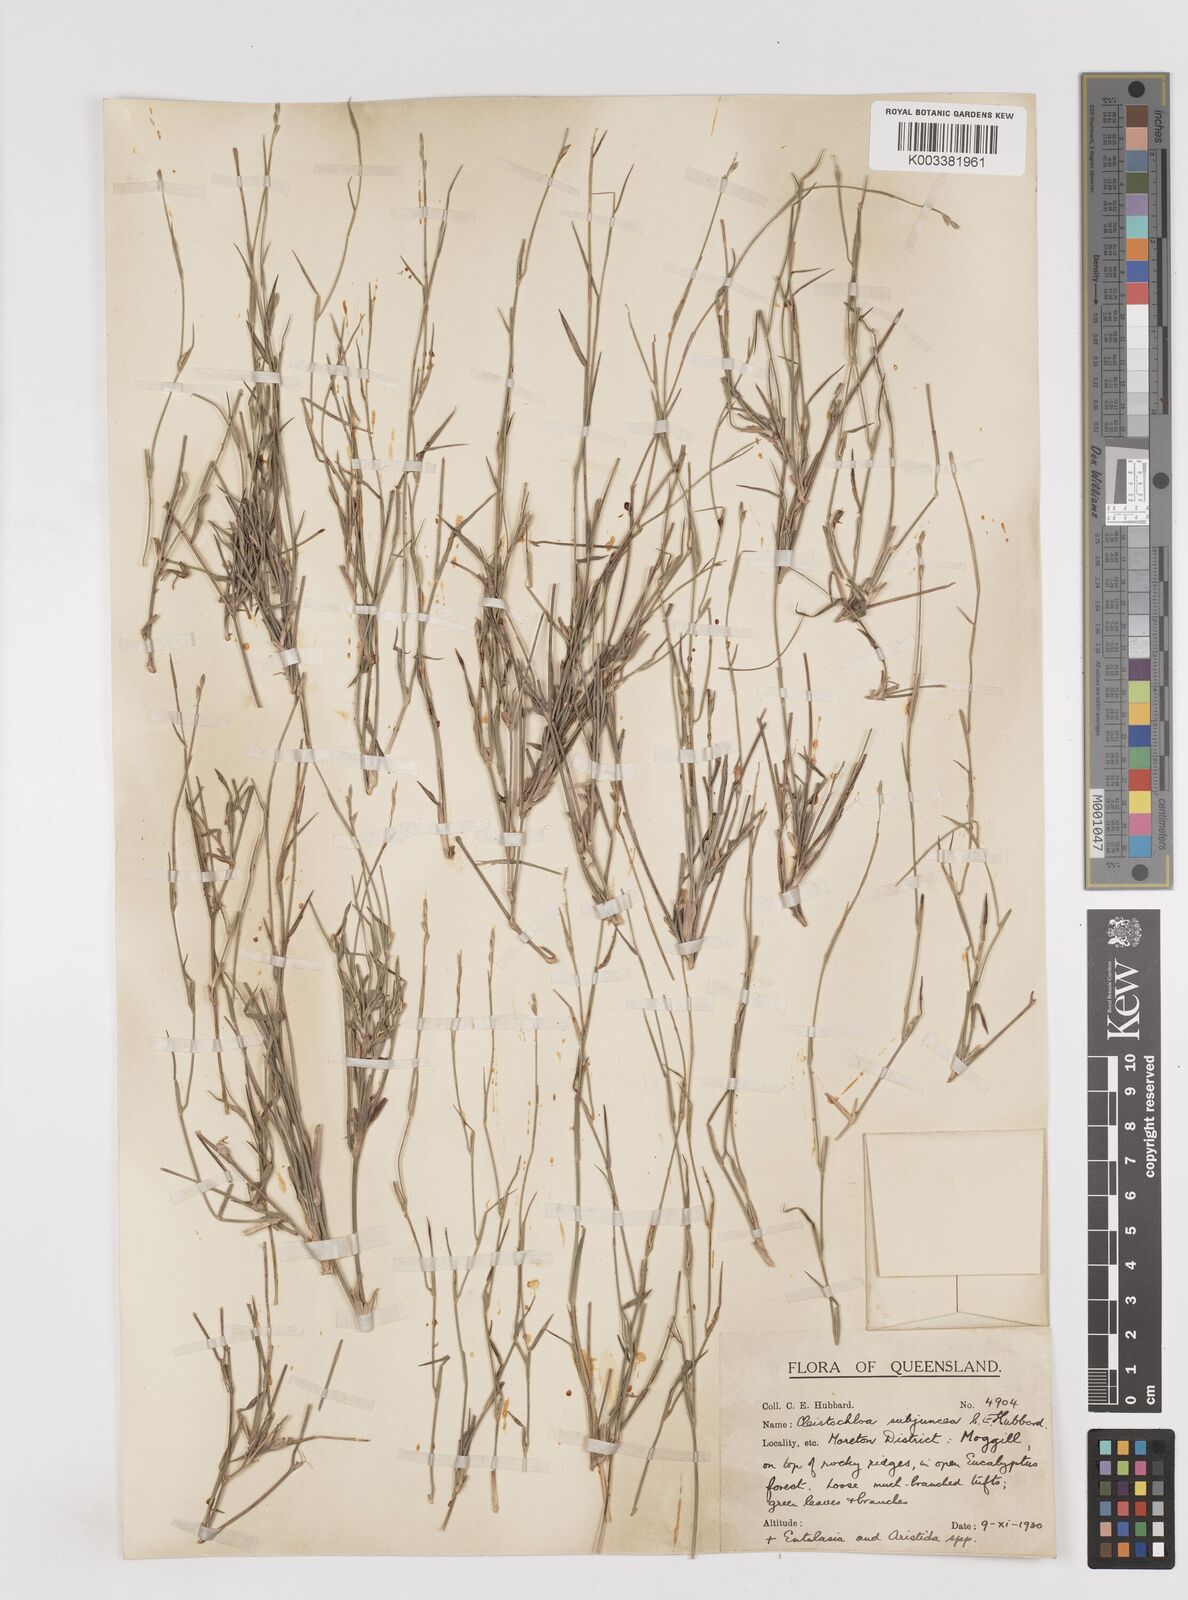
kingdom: Plantae
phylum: Tracheophyta
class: Liliopsida
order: Poales
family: Poaceae
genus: Cleistochloa
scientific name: Cleistochloa subjuncea
